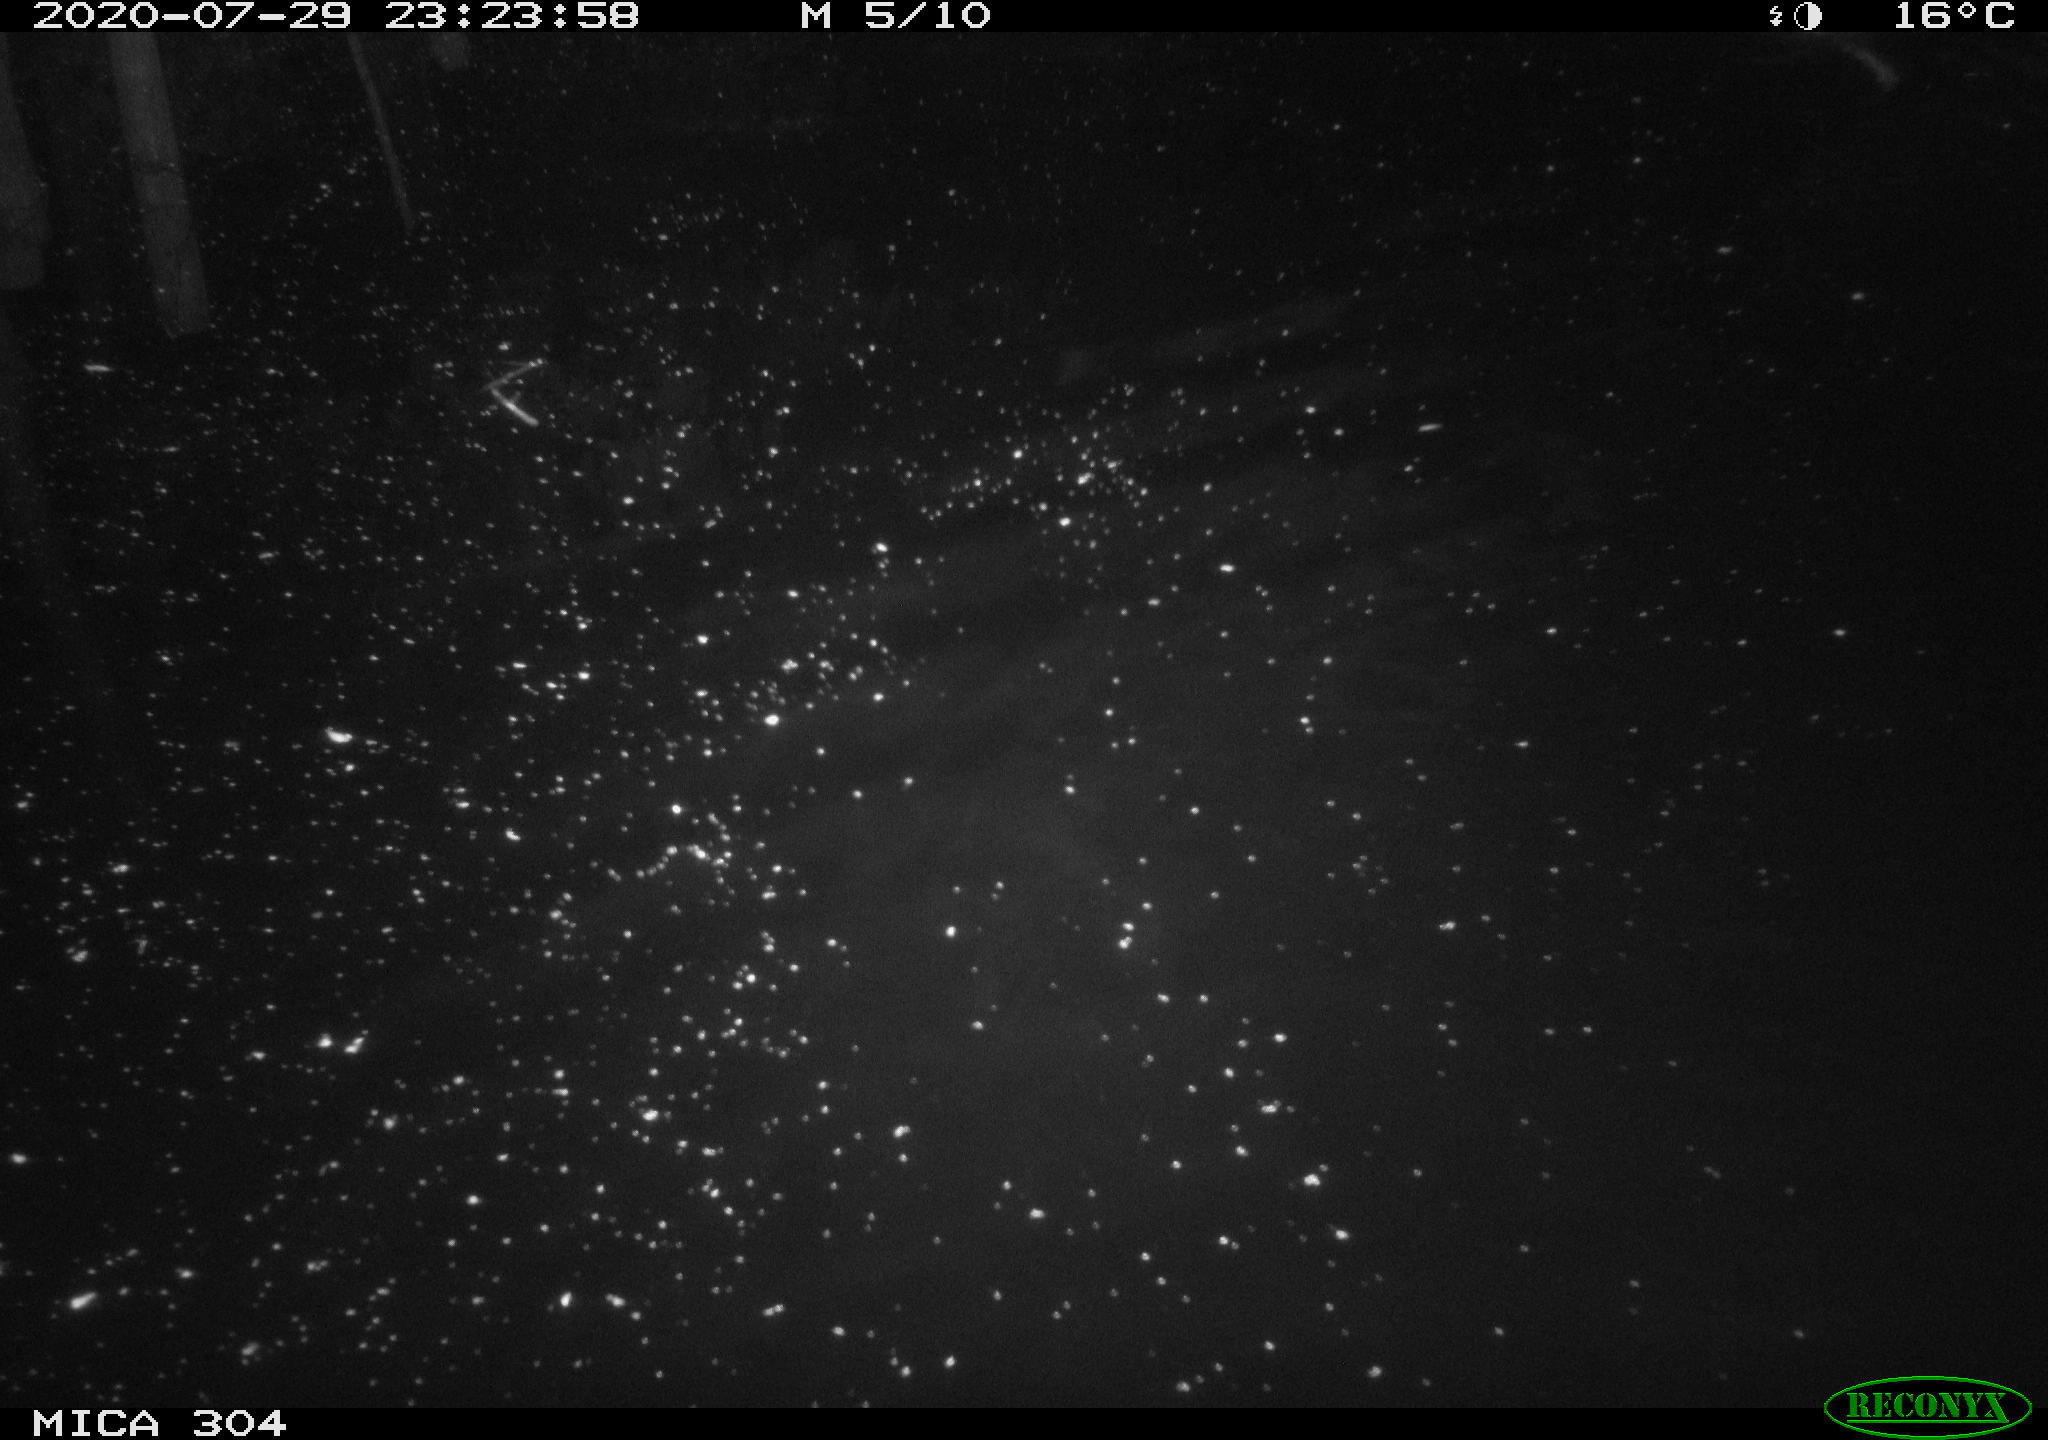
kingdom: Animalia
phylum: Chordata
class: Mammalia
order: Rodentia
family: Cricetidae
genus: Ondatra
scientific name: Ondatra zibethicus
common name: Muskrat
